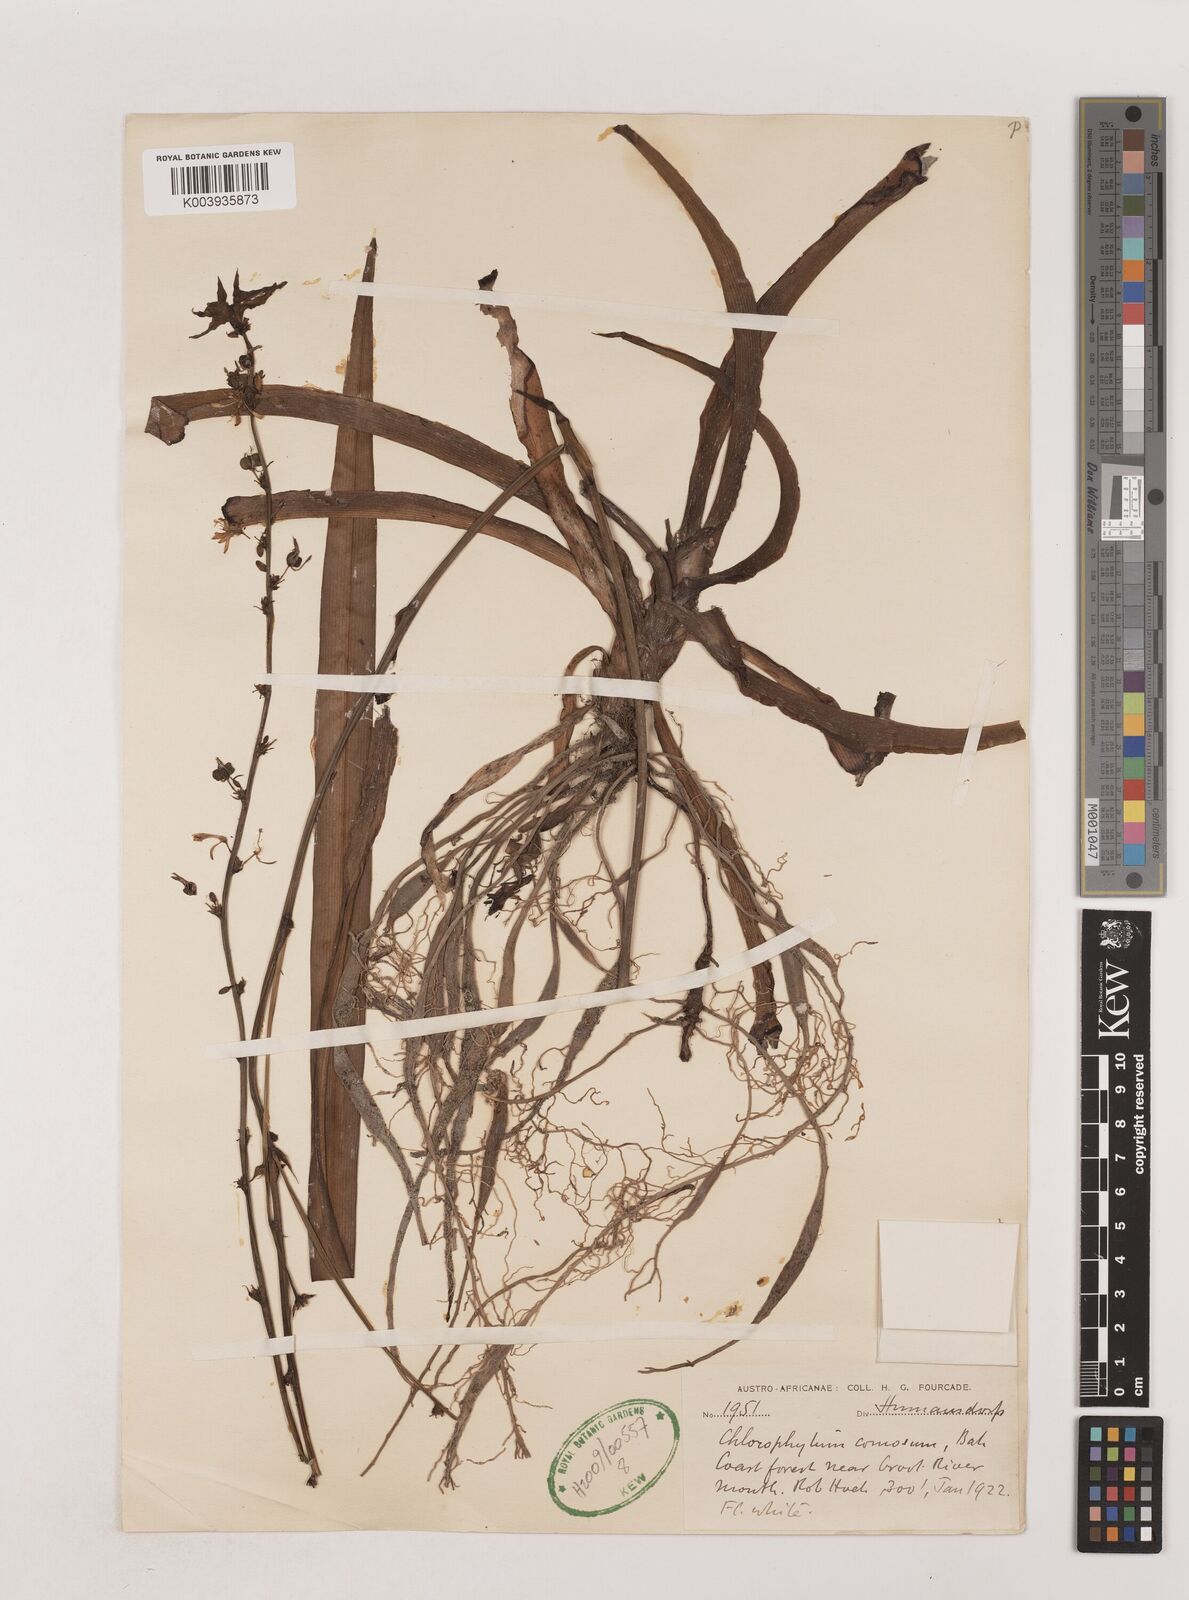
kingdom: Plantae
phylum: Tracheophyta
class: Liliopsida
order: Asparagales
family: Asparagaceae
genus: Chlorophytum
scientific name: Chlorophytum comosum
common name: Spider plant
